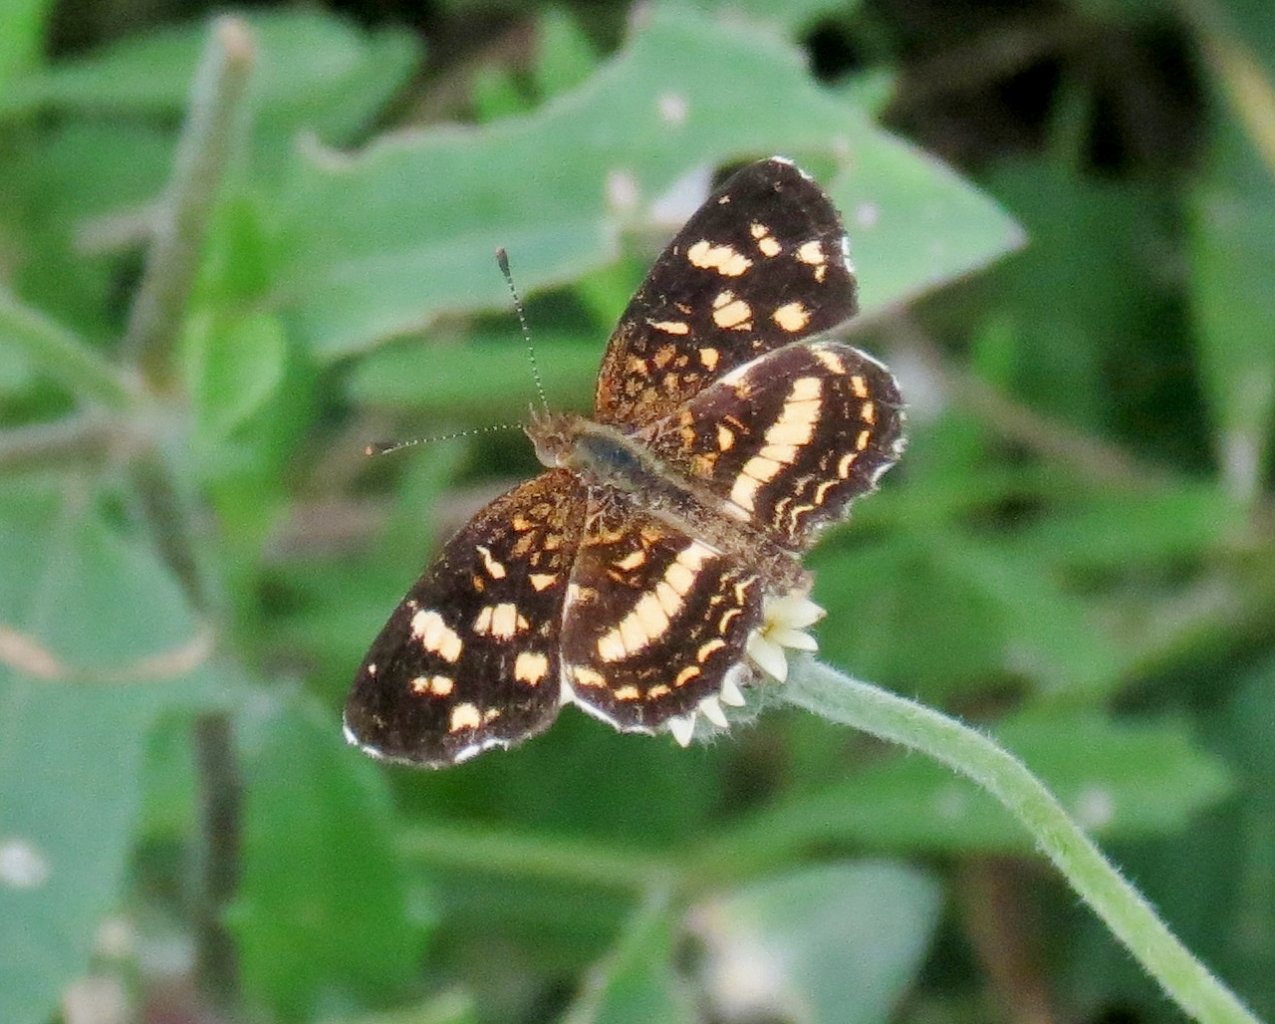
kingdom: Animalia
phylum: Arthropoda
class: Insecta
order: Lepidoptera
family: Nymphalidae
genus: Anthanassa
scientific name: Anthanassa tulcis
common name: Pale-banded Crescent
